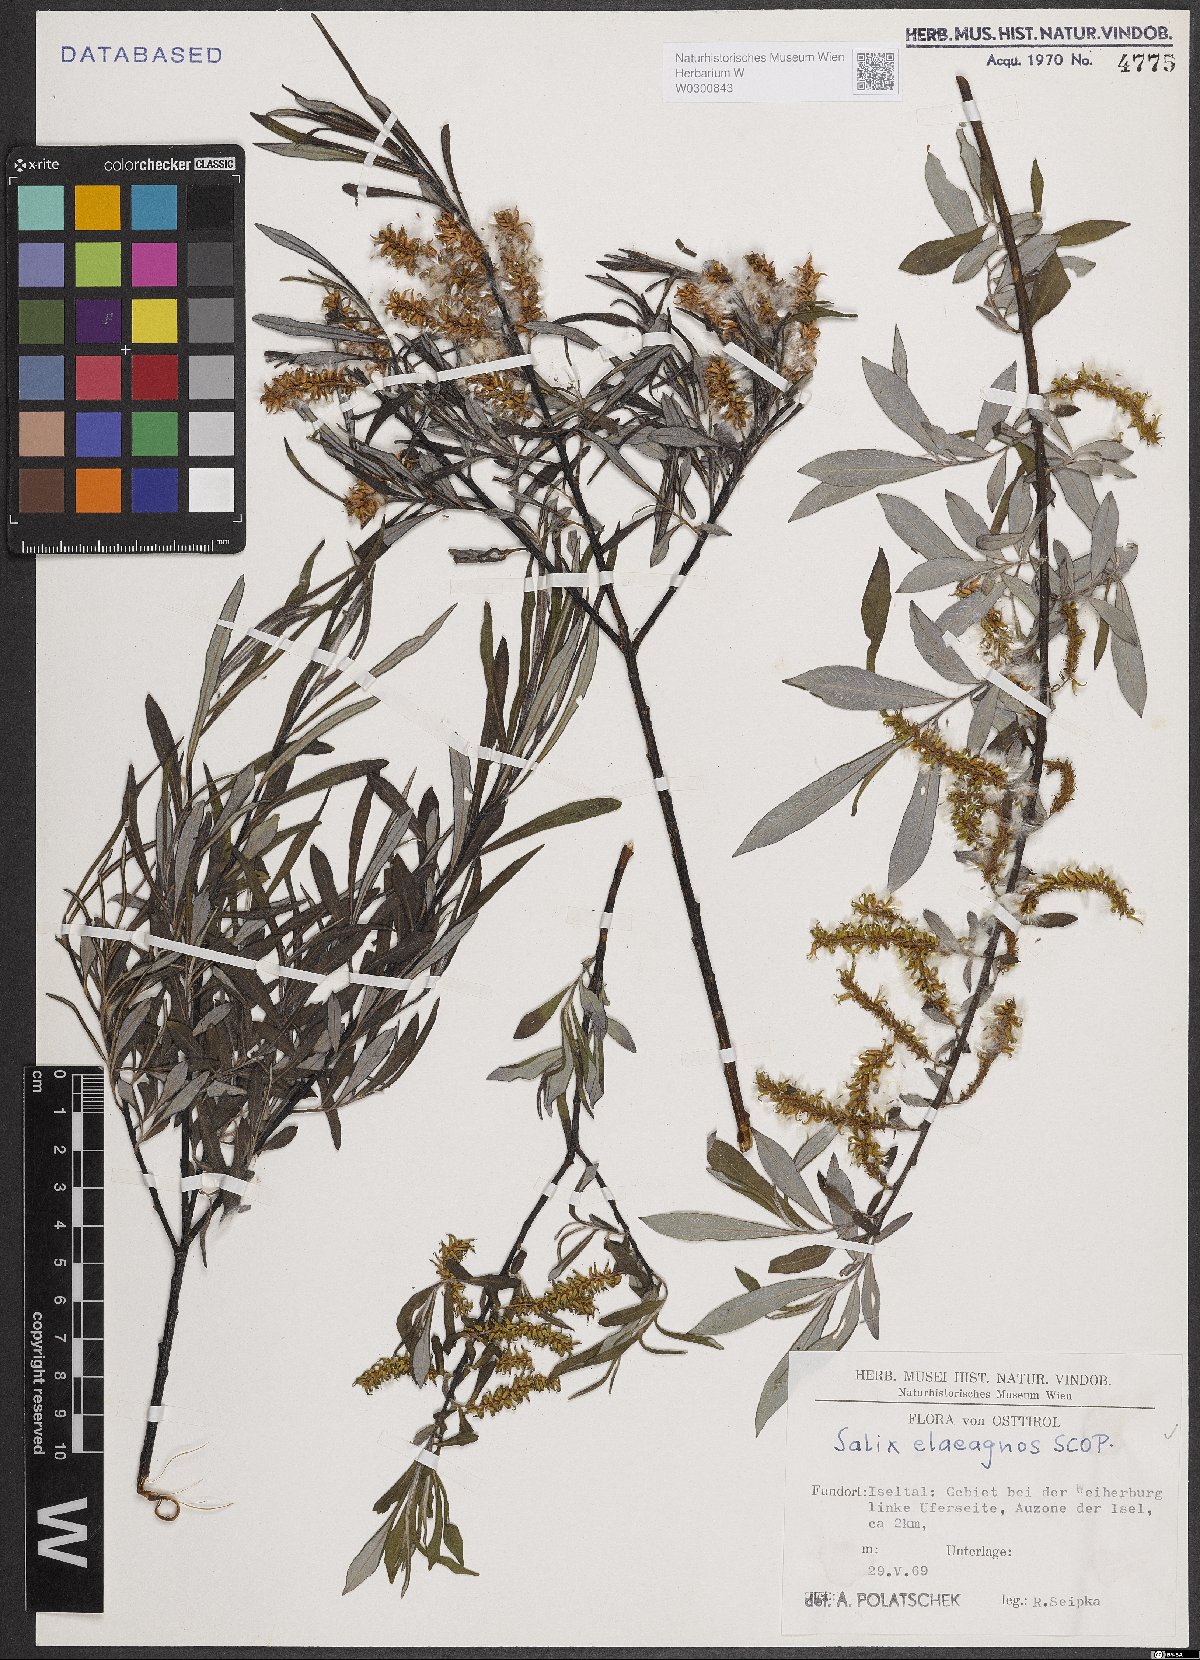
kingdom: Plantae
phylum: Tracheophyta
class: Magnoliopsida
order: Malpighiales
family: Salicaceae
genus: Salix
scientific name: Salix eleagnos
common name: Elaeagnus willow
